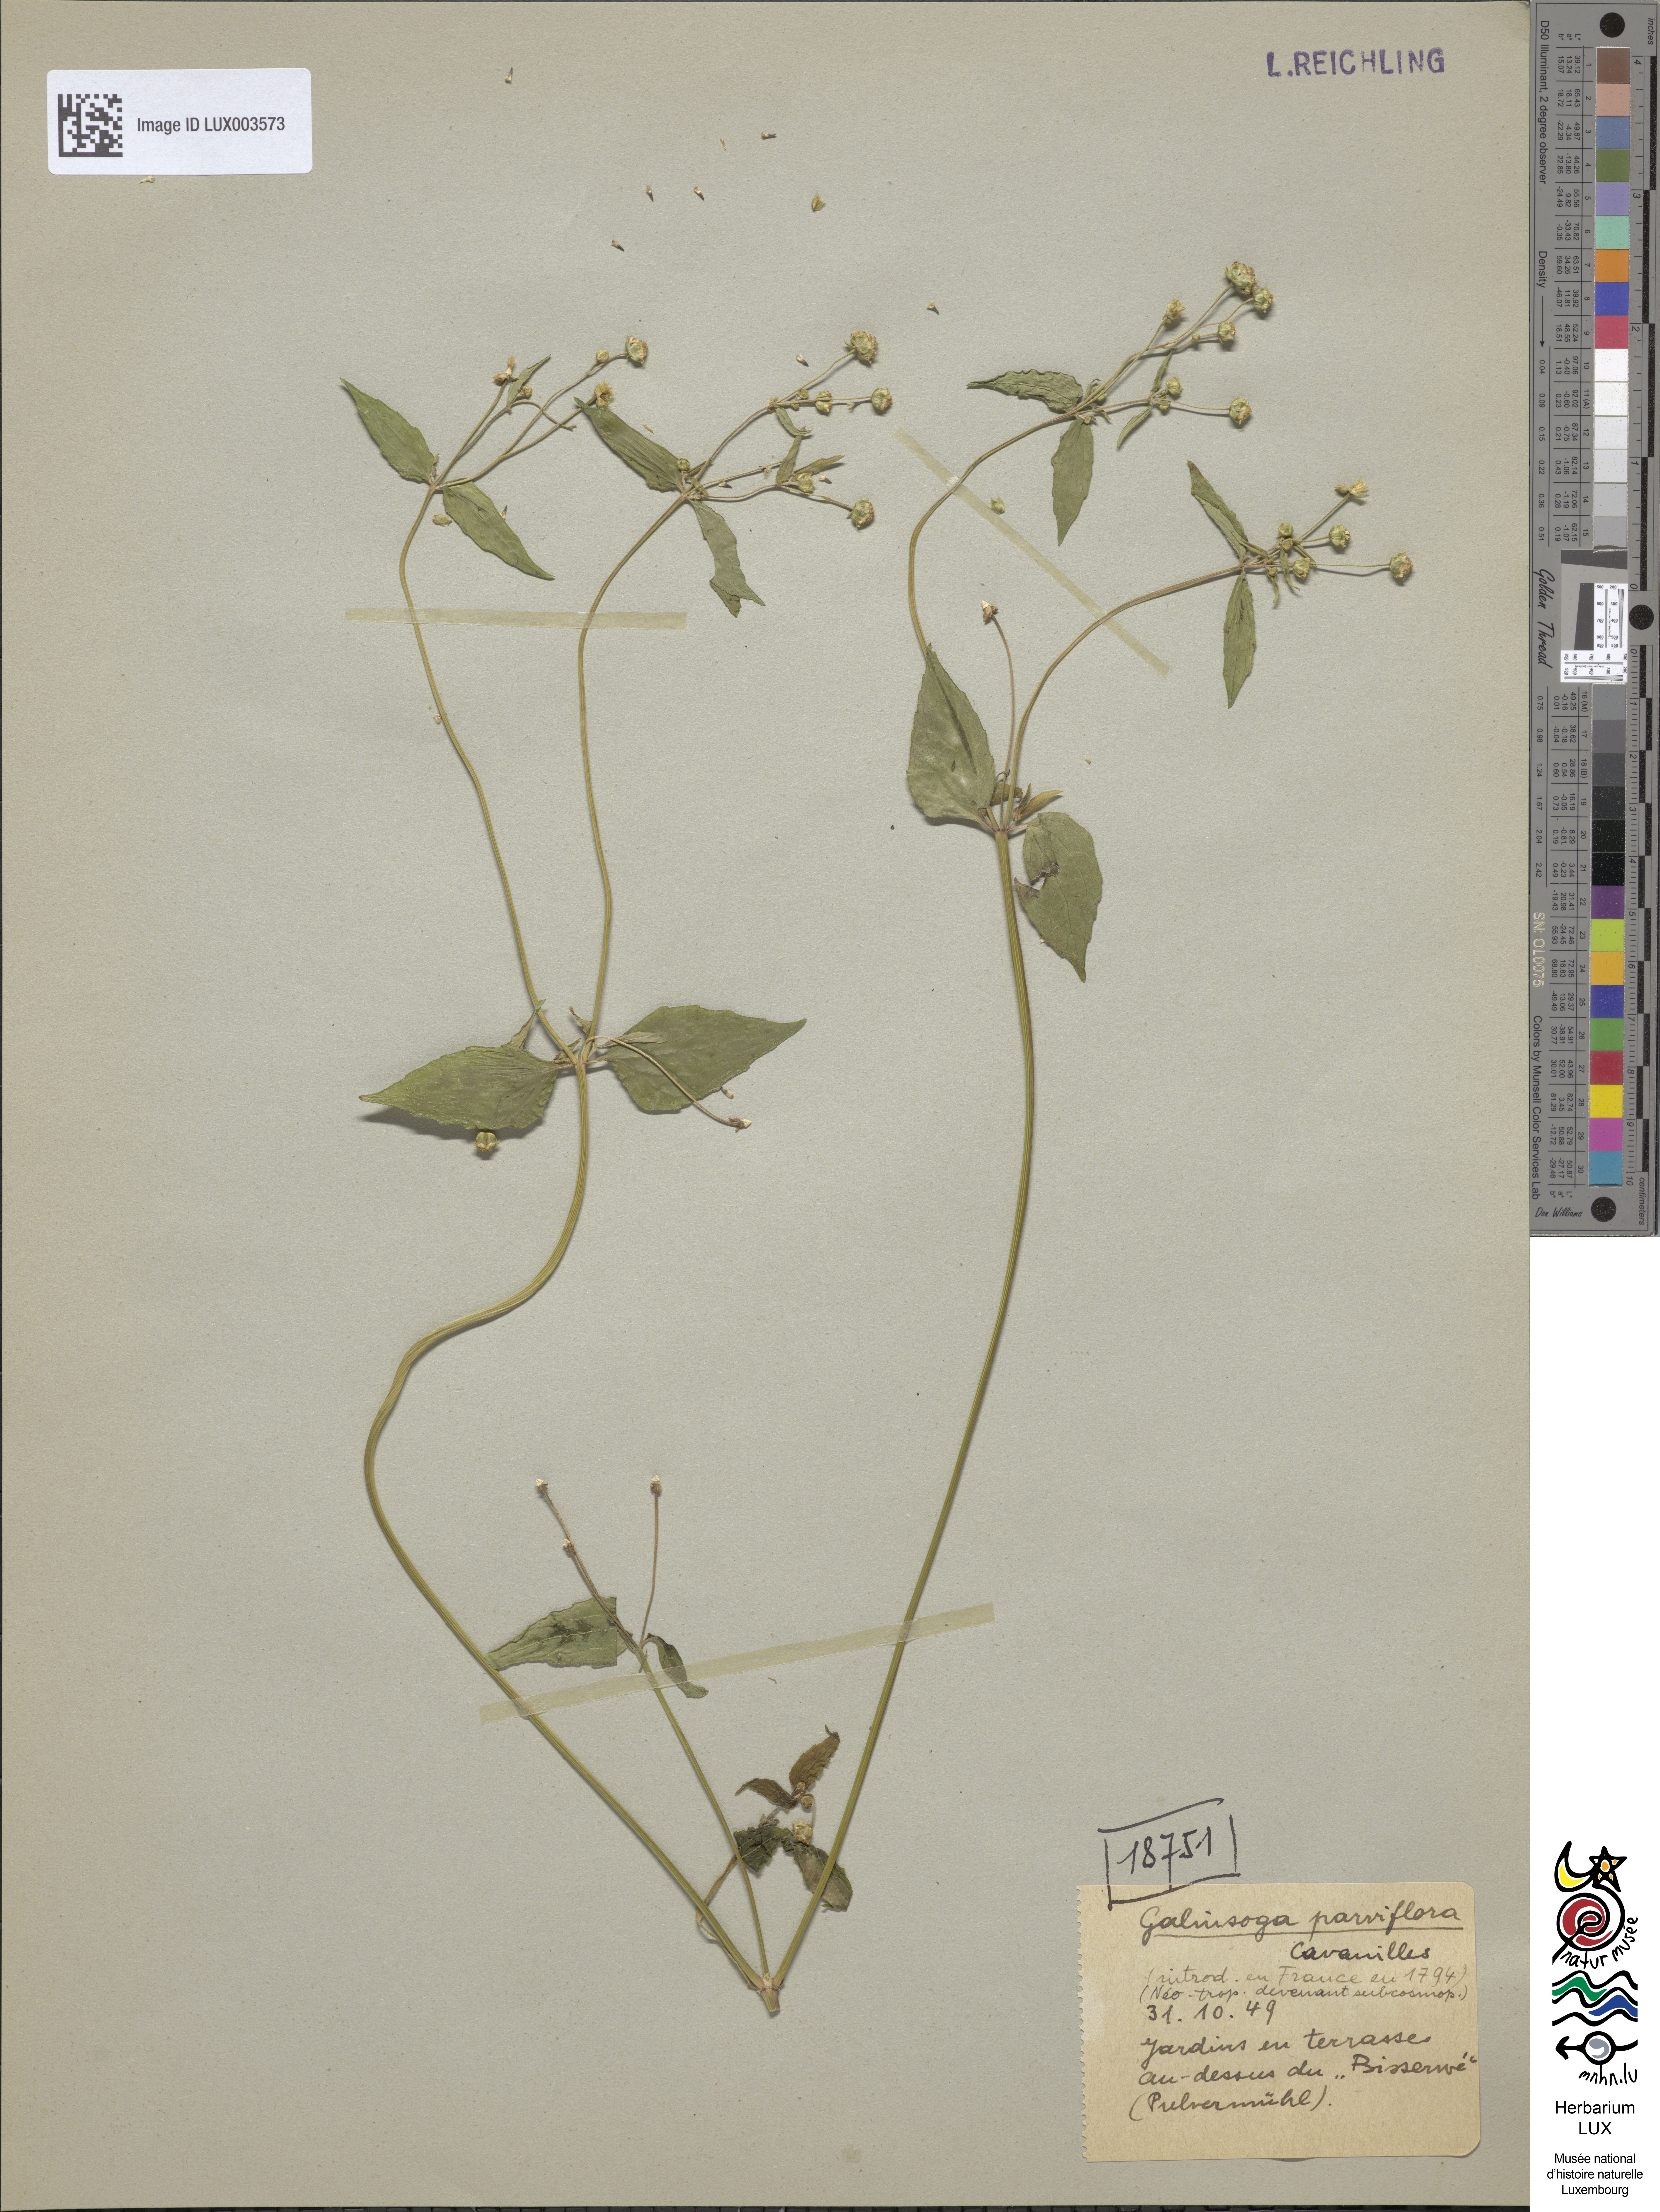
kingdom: Plantae
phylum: Tracheophyta
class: Magnoliopsida
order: Asterales
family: Asteraceae
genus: Galinsoga
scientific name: Galinsoga parviflora
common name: Gallant soldier
